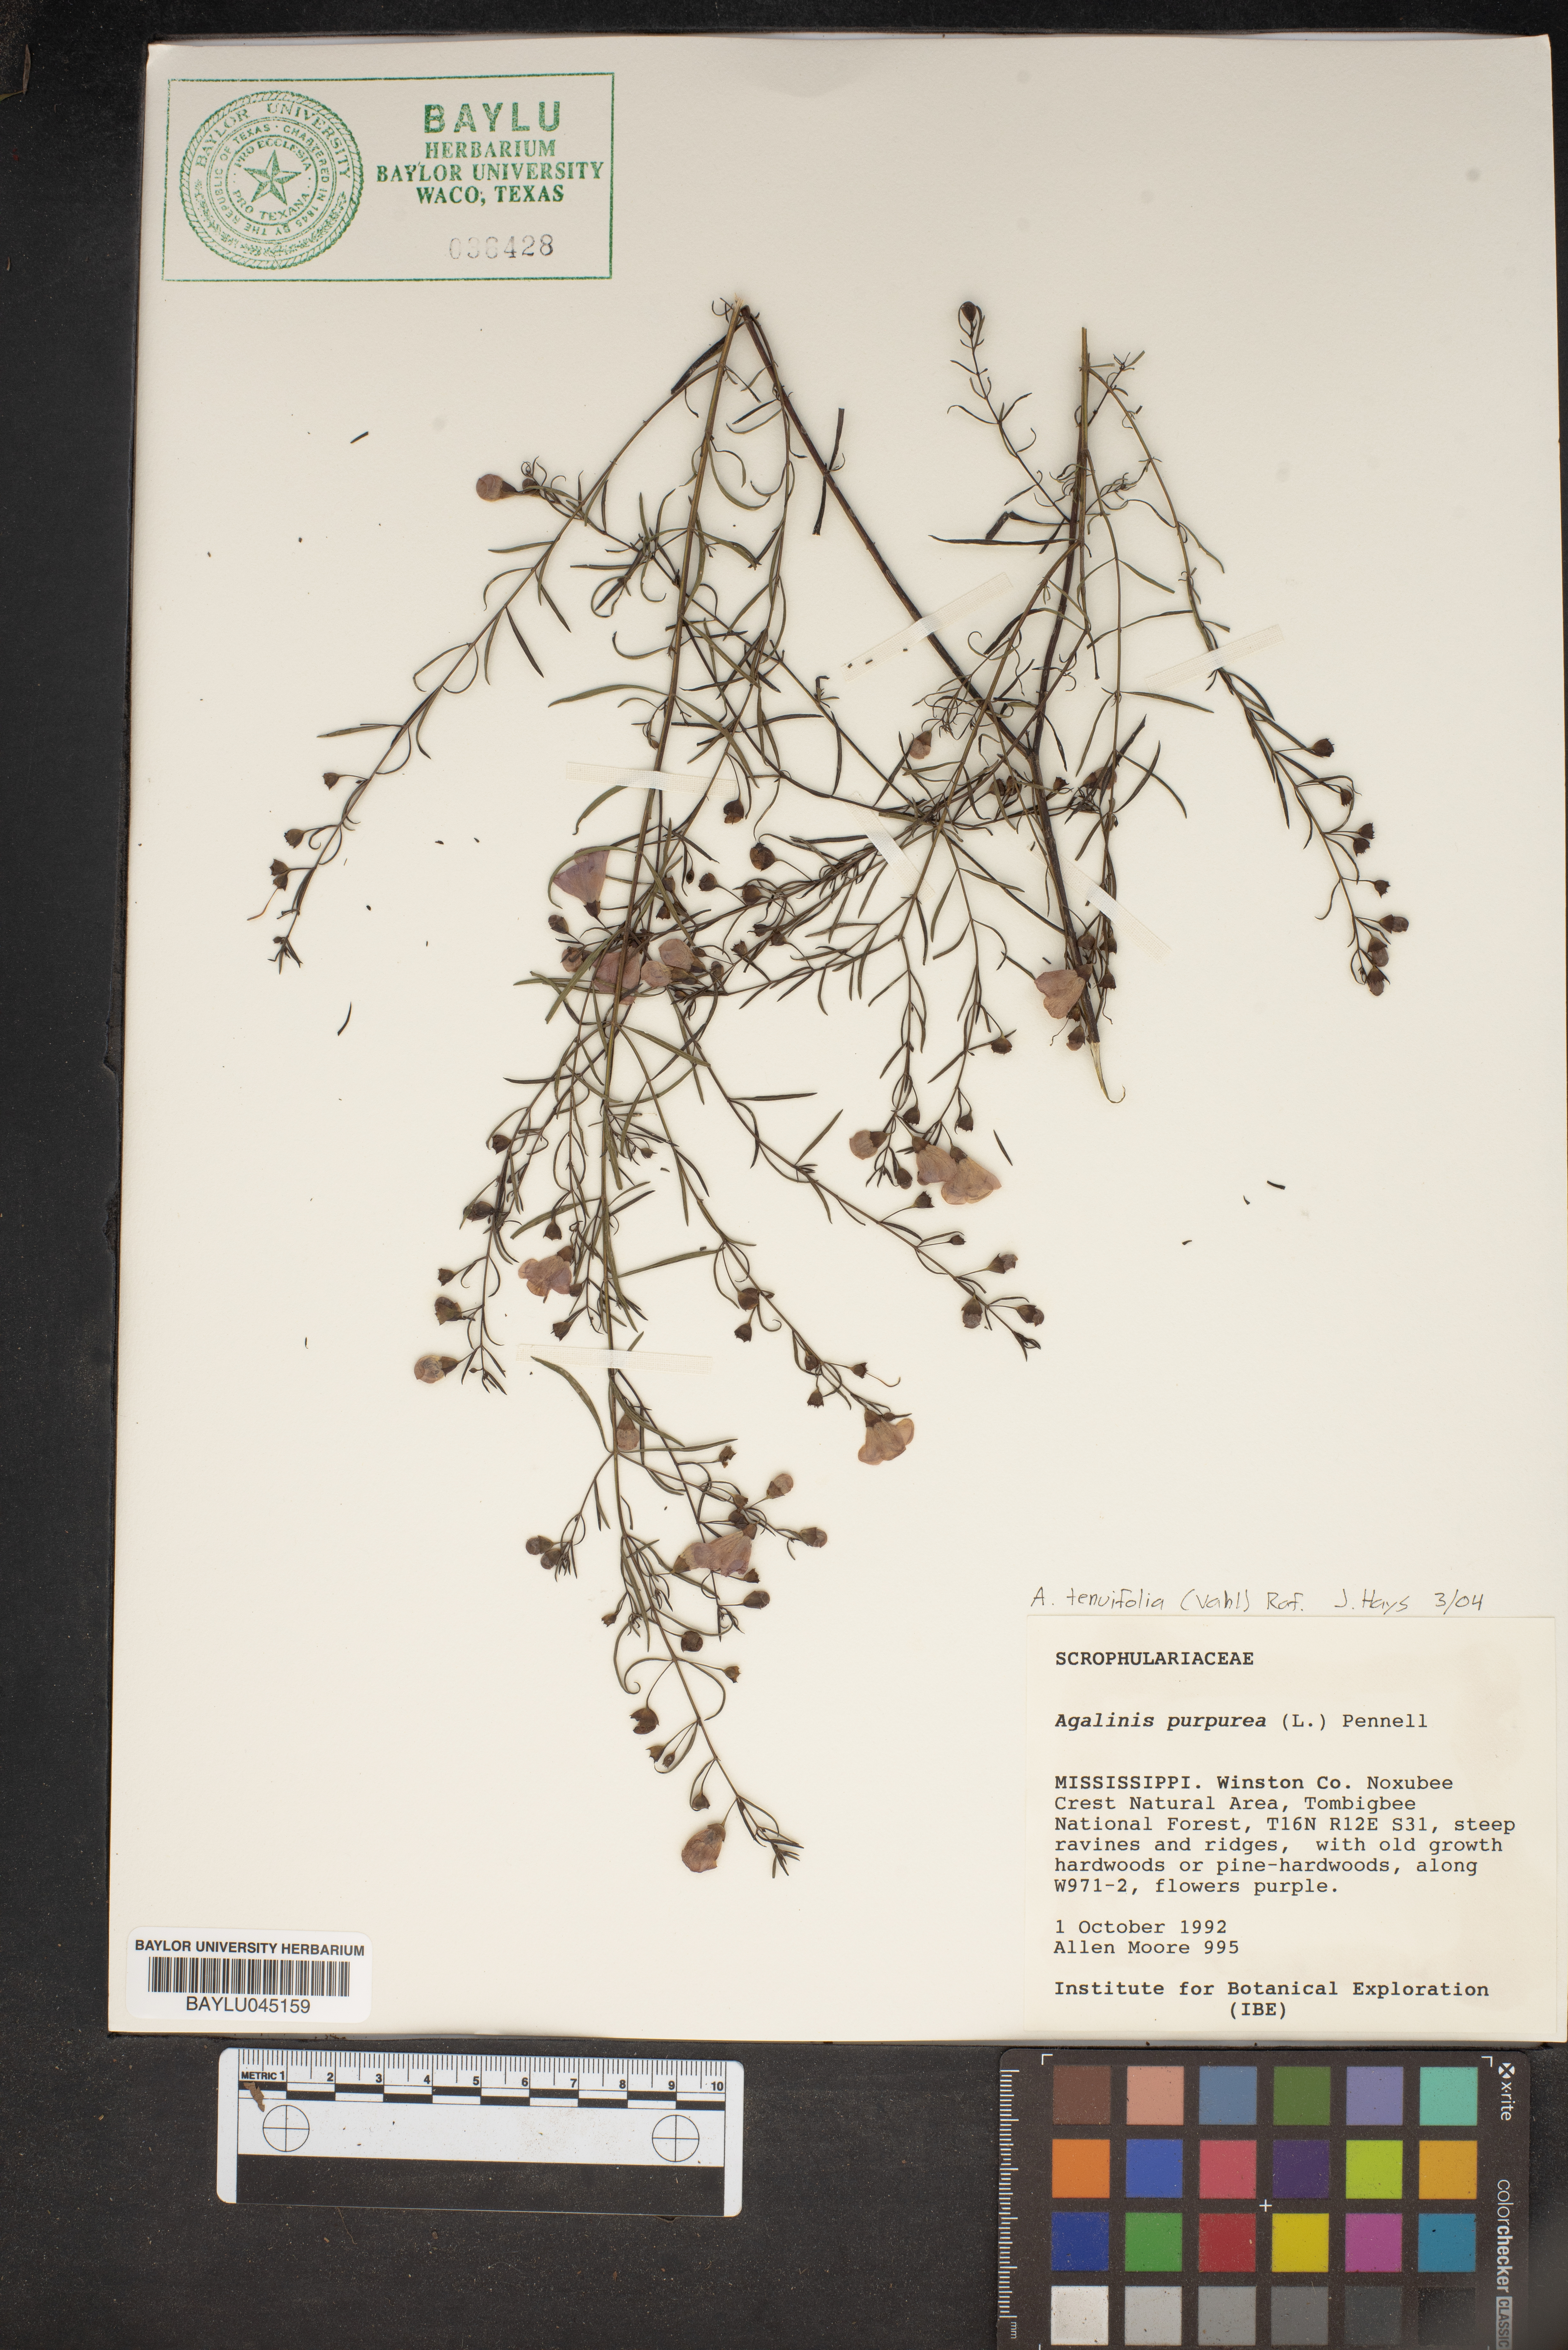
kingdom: Plantae
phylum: Tracheophyta
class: Magnoliopsida
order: Lamiales
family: Orobanchaceae
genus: Agalinis
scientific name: Agalinis purpurea
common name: Purple false foxglove
